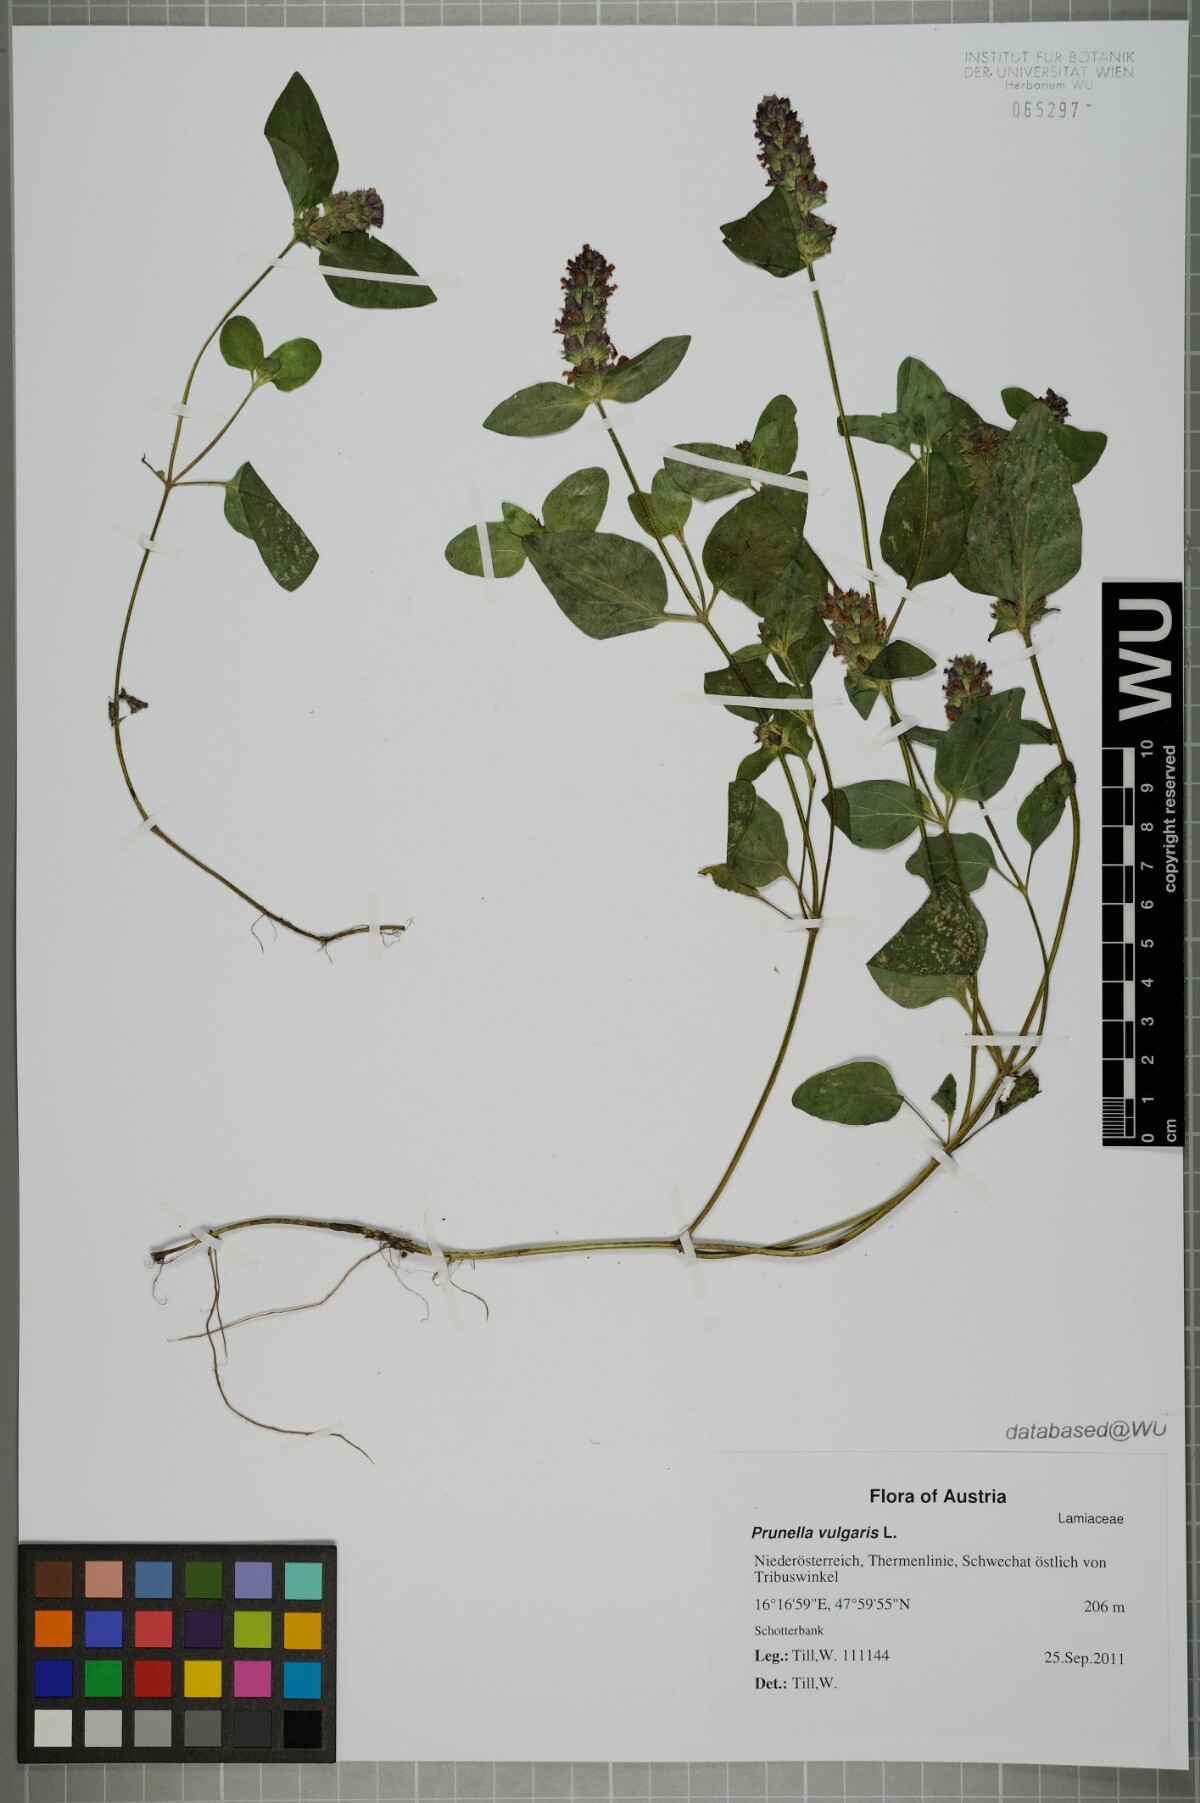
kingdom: Plantae
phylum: Tracheophyta
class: Magnoliopsida
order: Lamiales
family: Lamiaceae
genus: Prunella
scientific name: Prunella vulgaris
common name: Heal-all
